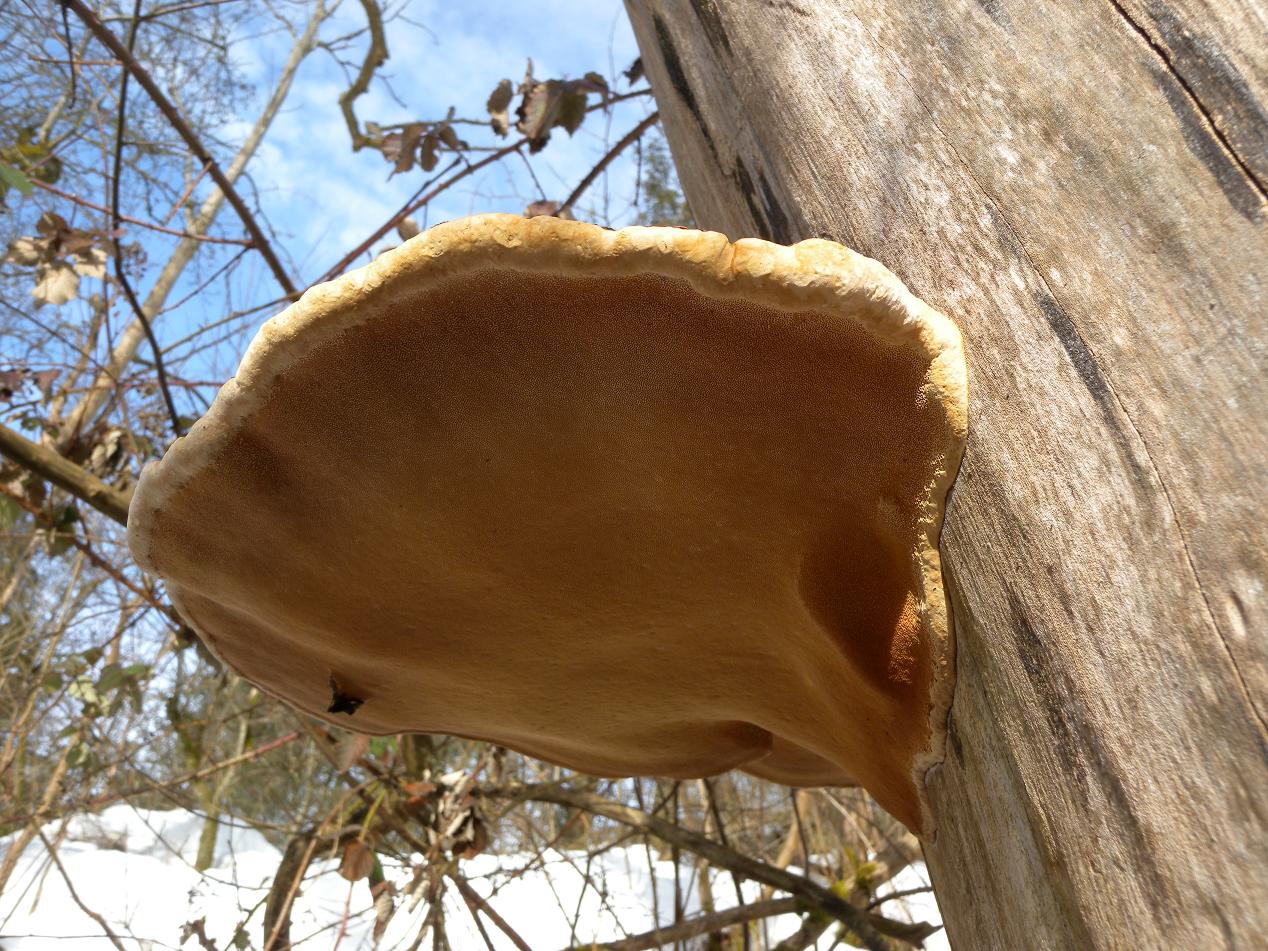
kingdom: Fungi
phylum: Basidiomycota
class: Agaricomycetes
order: Polyporales
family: Fomitopsidaceae
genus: Fomitopsis
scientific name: Fomitopsis pinicola
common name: randbæltet hovporesvamp
